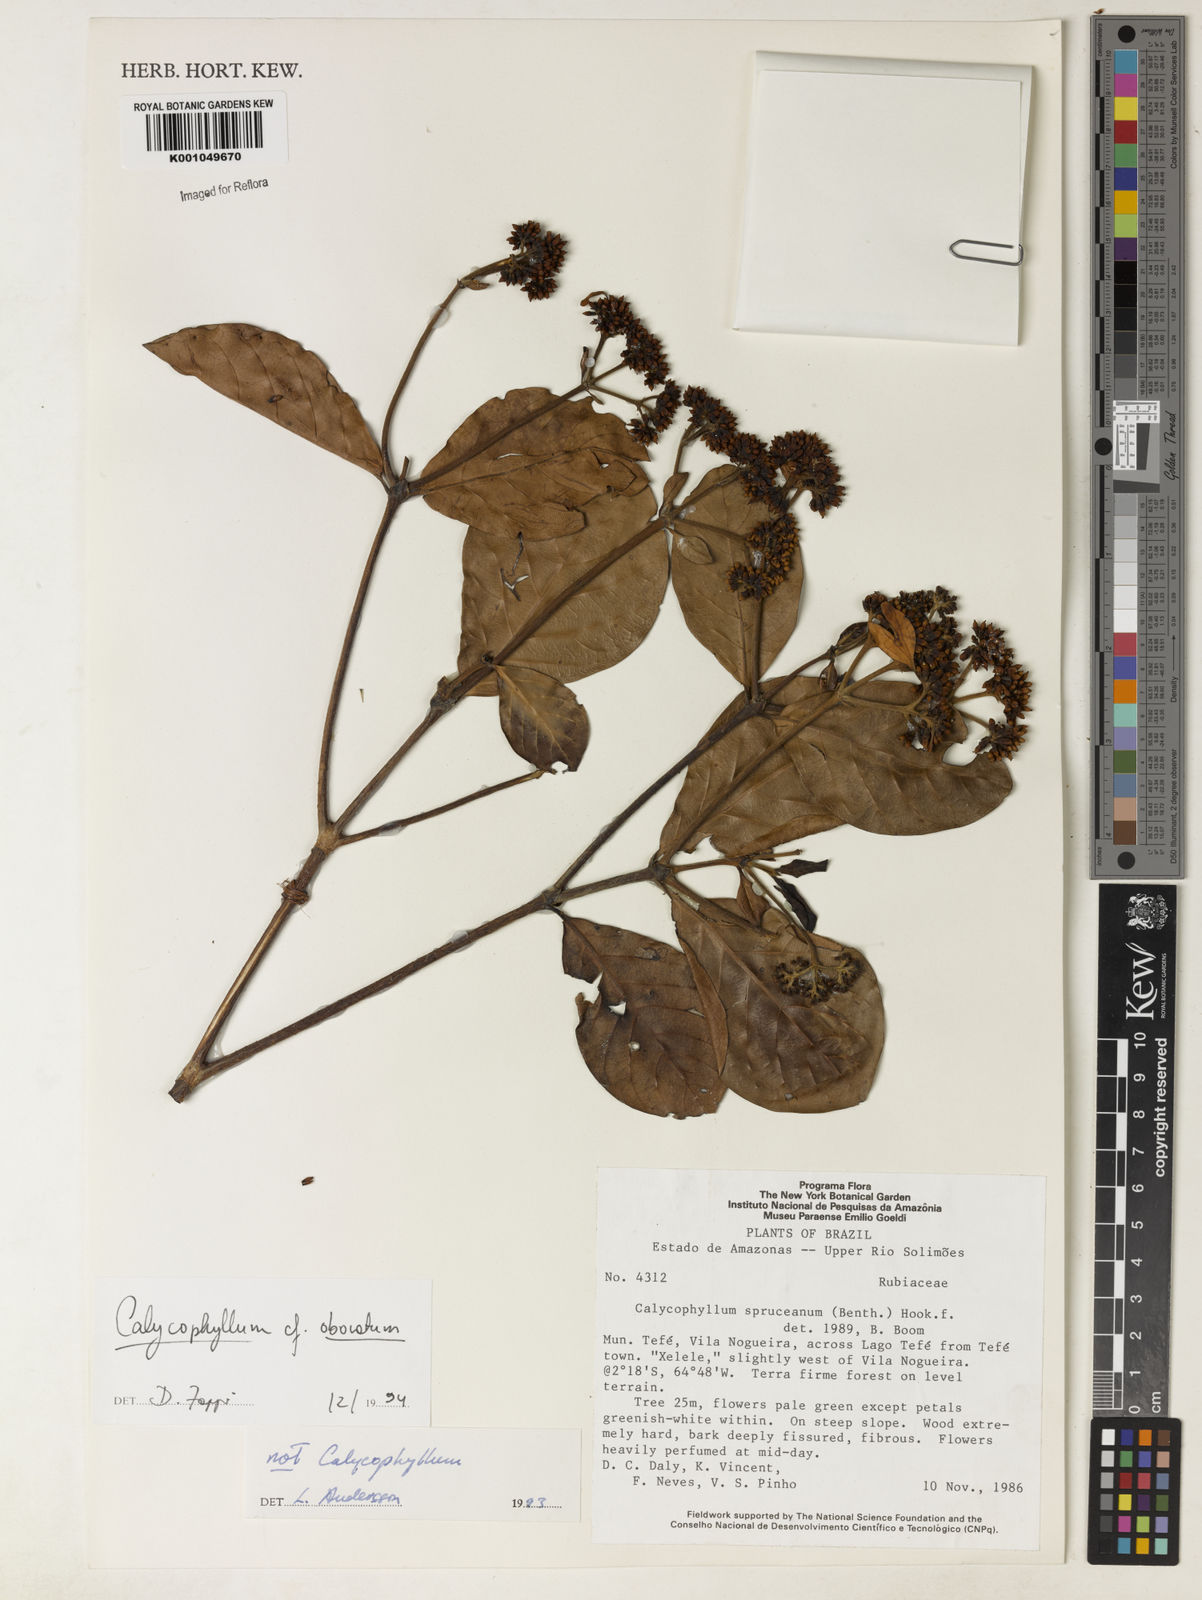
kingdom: Plantae
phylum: Tracheophyta
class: Magnoliopsida
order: Gentianales
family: Rubiaceae
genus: Calycophyllum
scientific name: Calycophyllum intonsum
